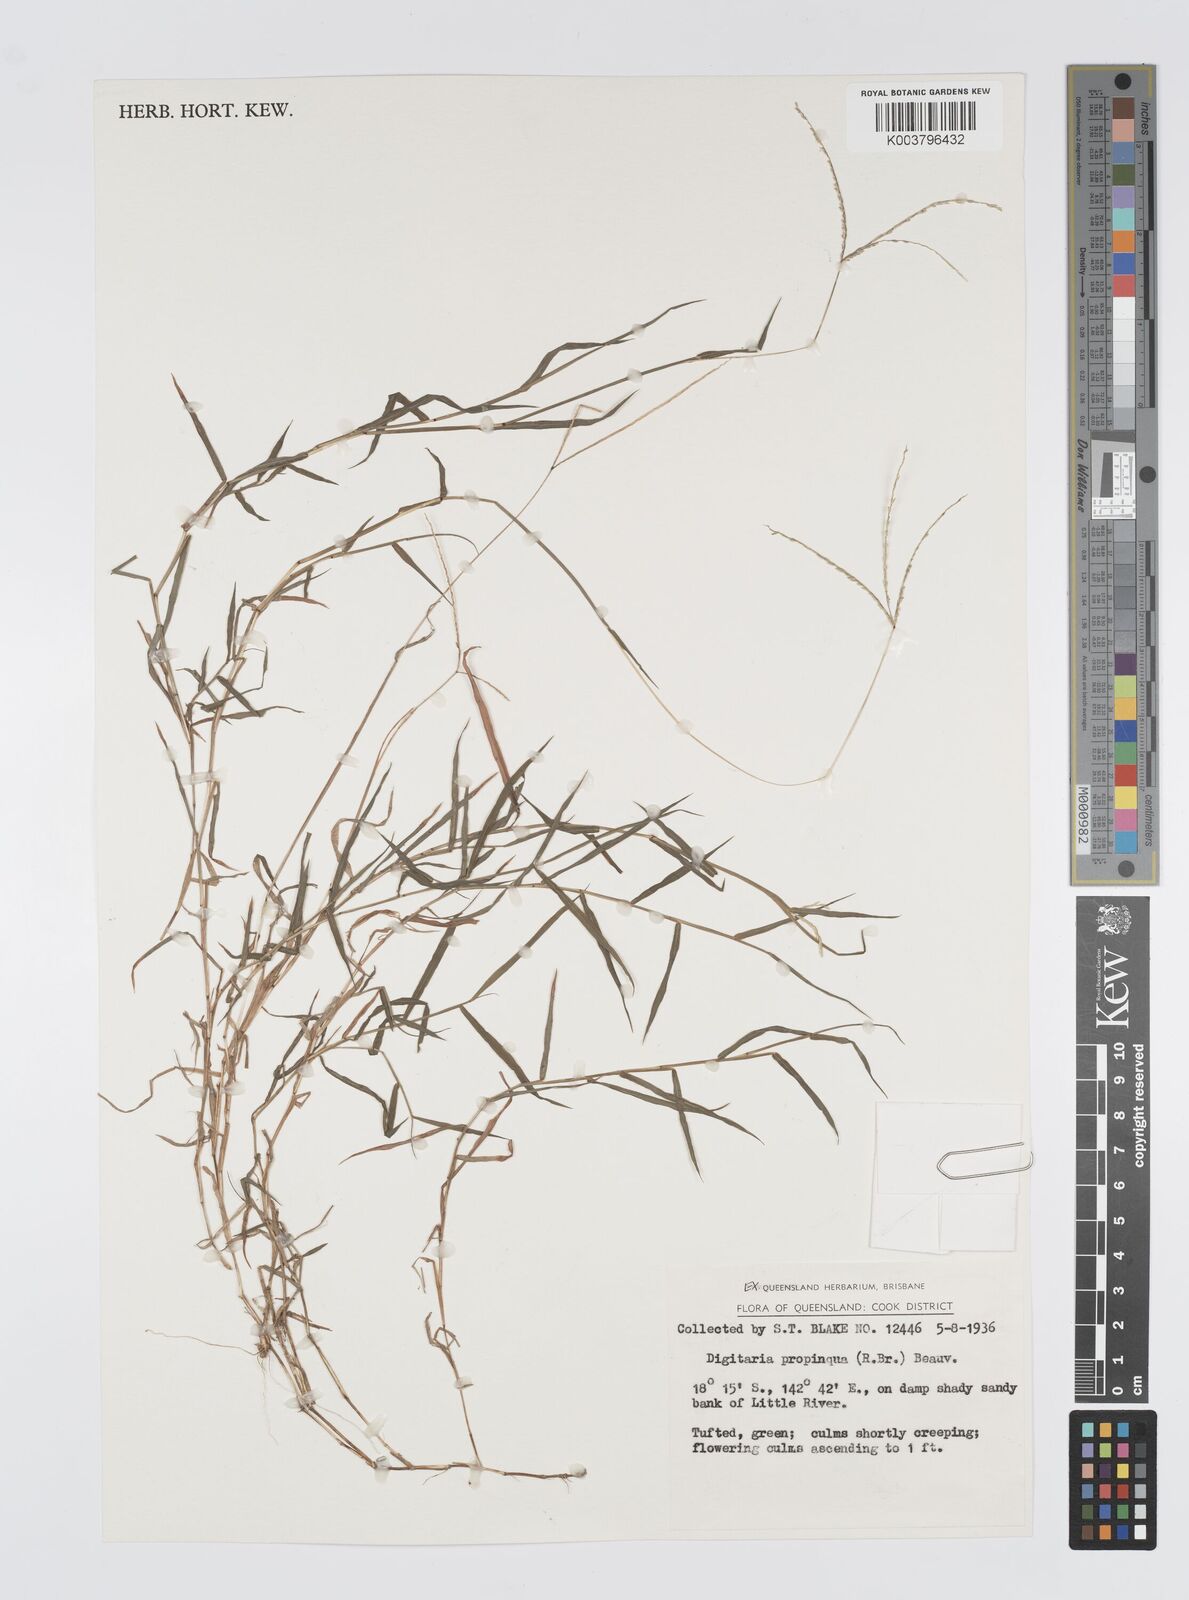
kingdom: Plantae
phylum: Tracheophyta
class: Liliopsida
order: Poales
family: Poaceae
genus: Digitaria
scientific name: Digitaria longiflora
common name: Wire crabgrass
